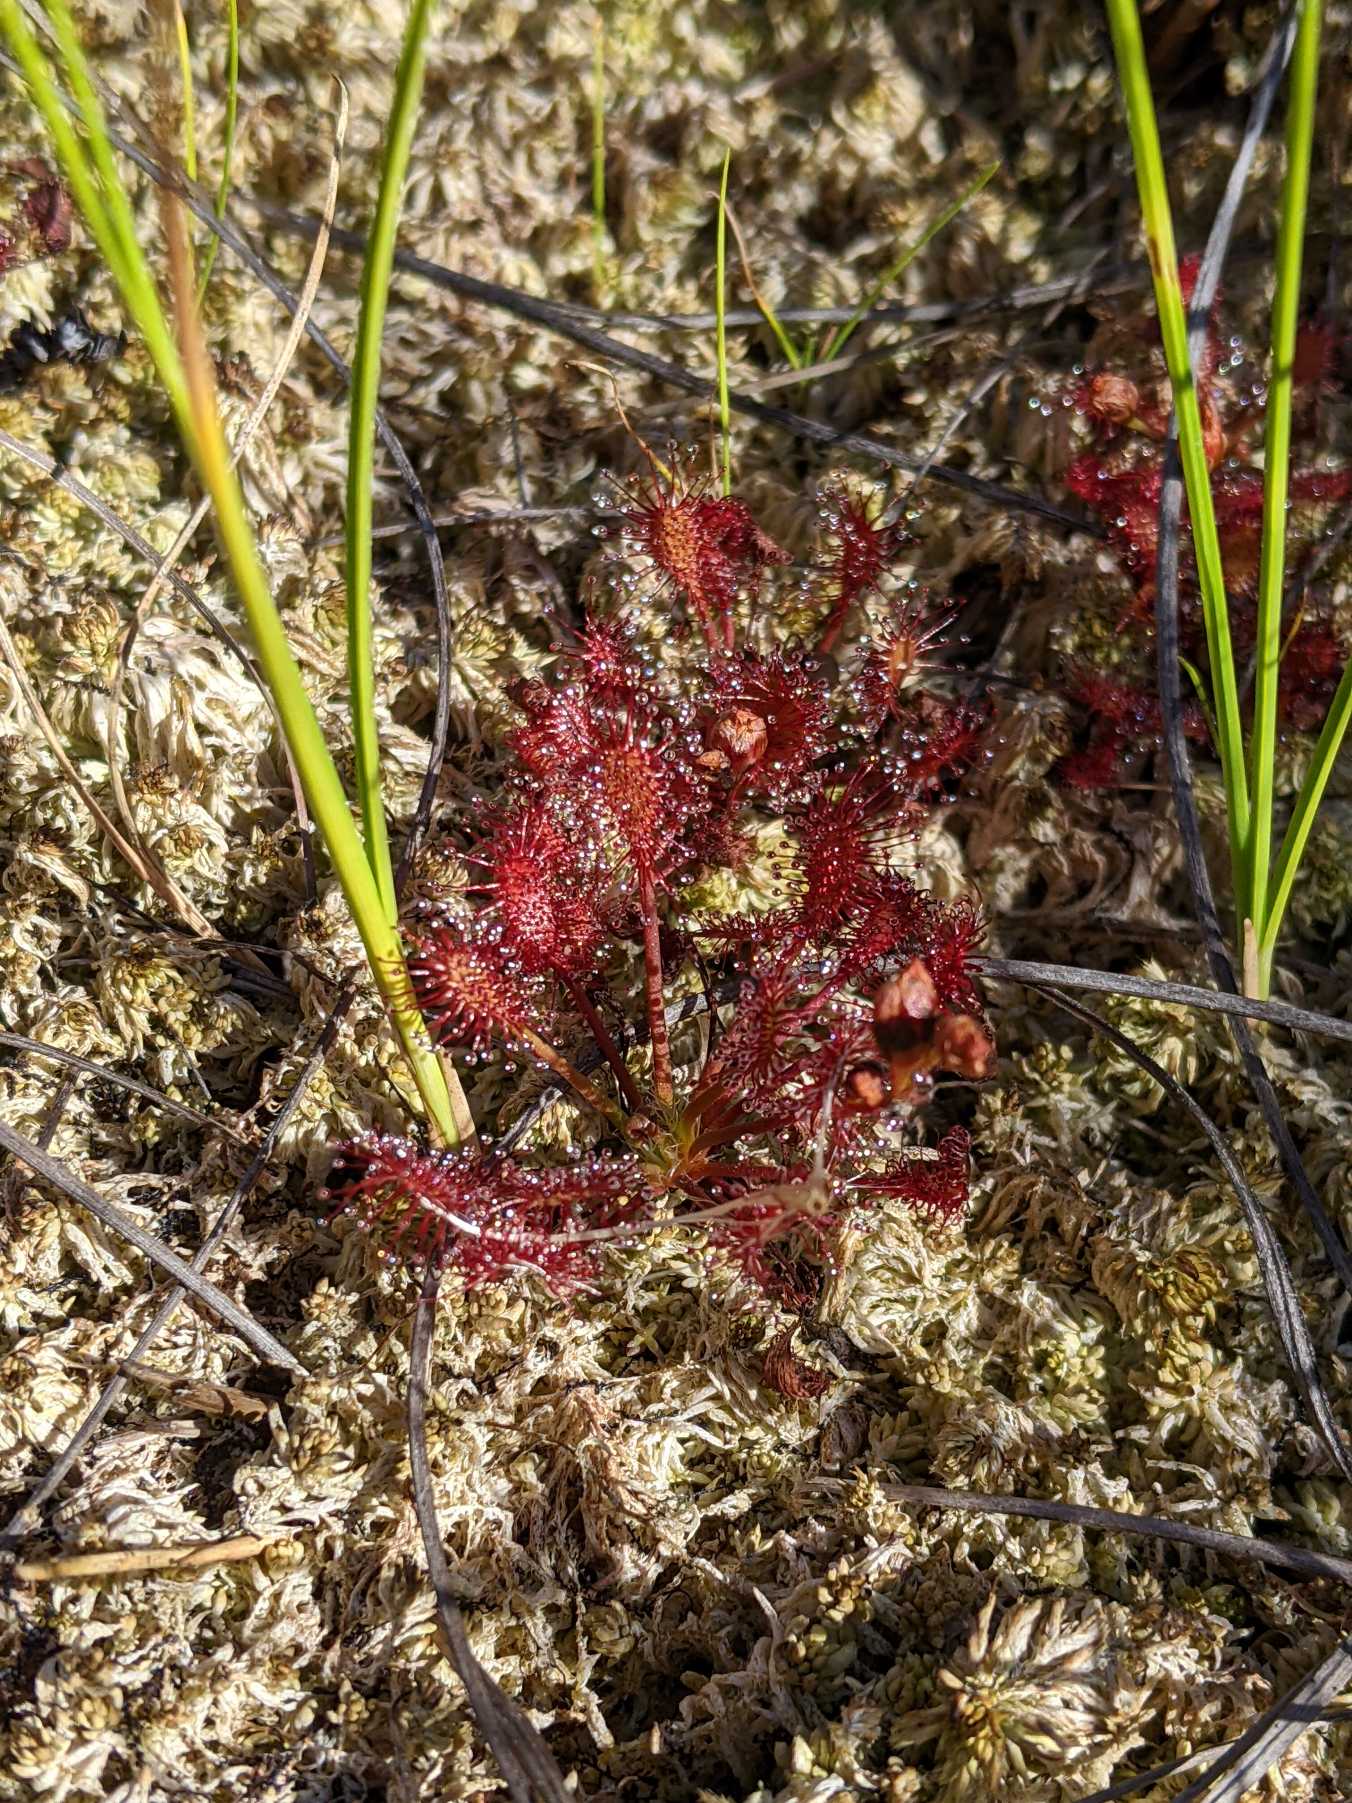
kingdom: Plantae
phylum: Tracheophyta
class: Magnoliopsida
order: Caryophyllales
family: Droseraceae
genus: Drosera
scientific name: Drosera intermedia
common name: Liden soldug
